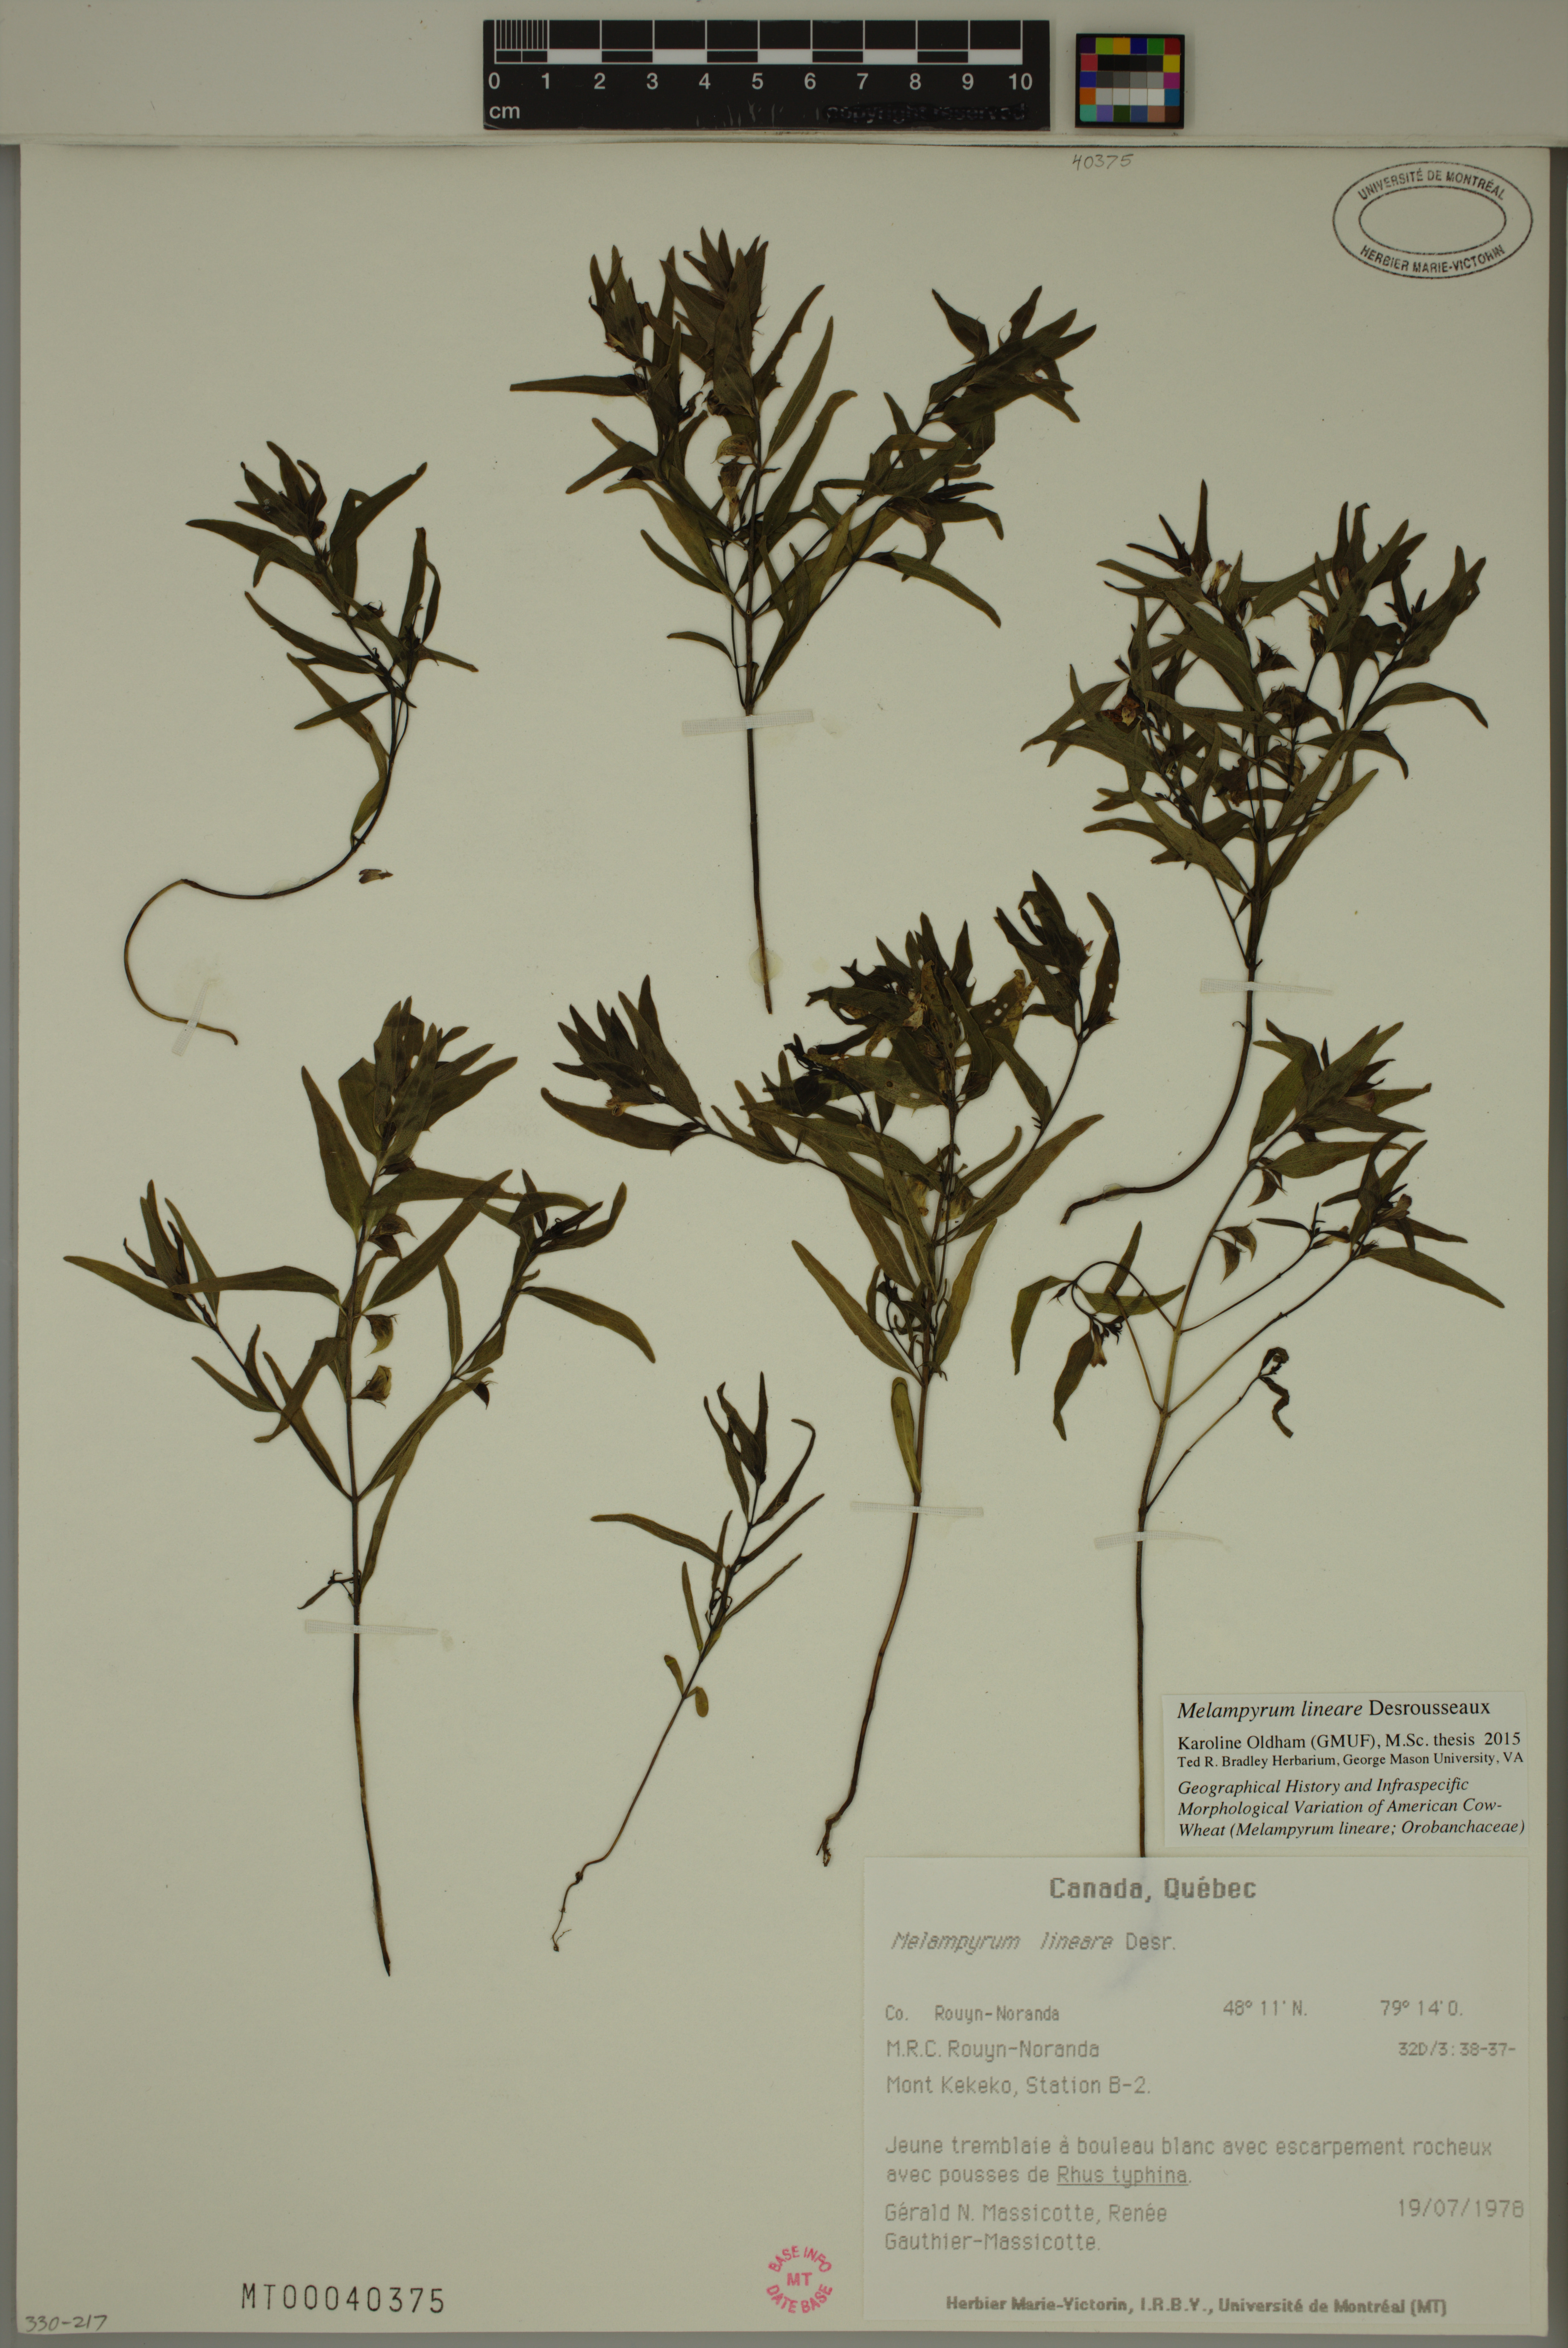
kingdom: Plantae
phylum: Tracheophyta
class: Magnoliopsida
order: Lamiales
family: Orobanchaceae
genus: Melampyrum
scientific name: Melampyrum lineare
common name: American cow-wheat
